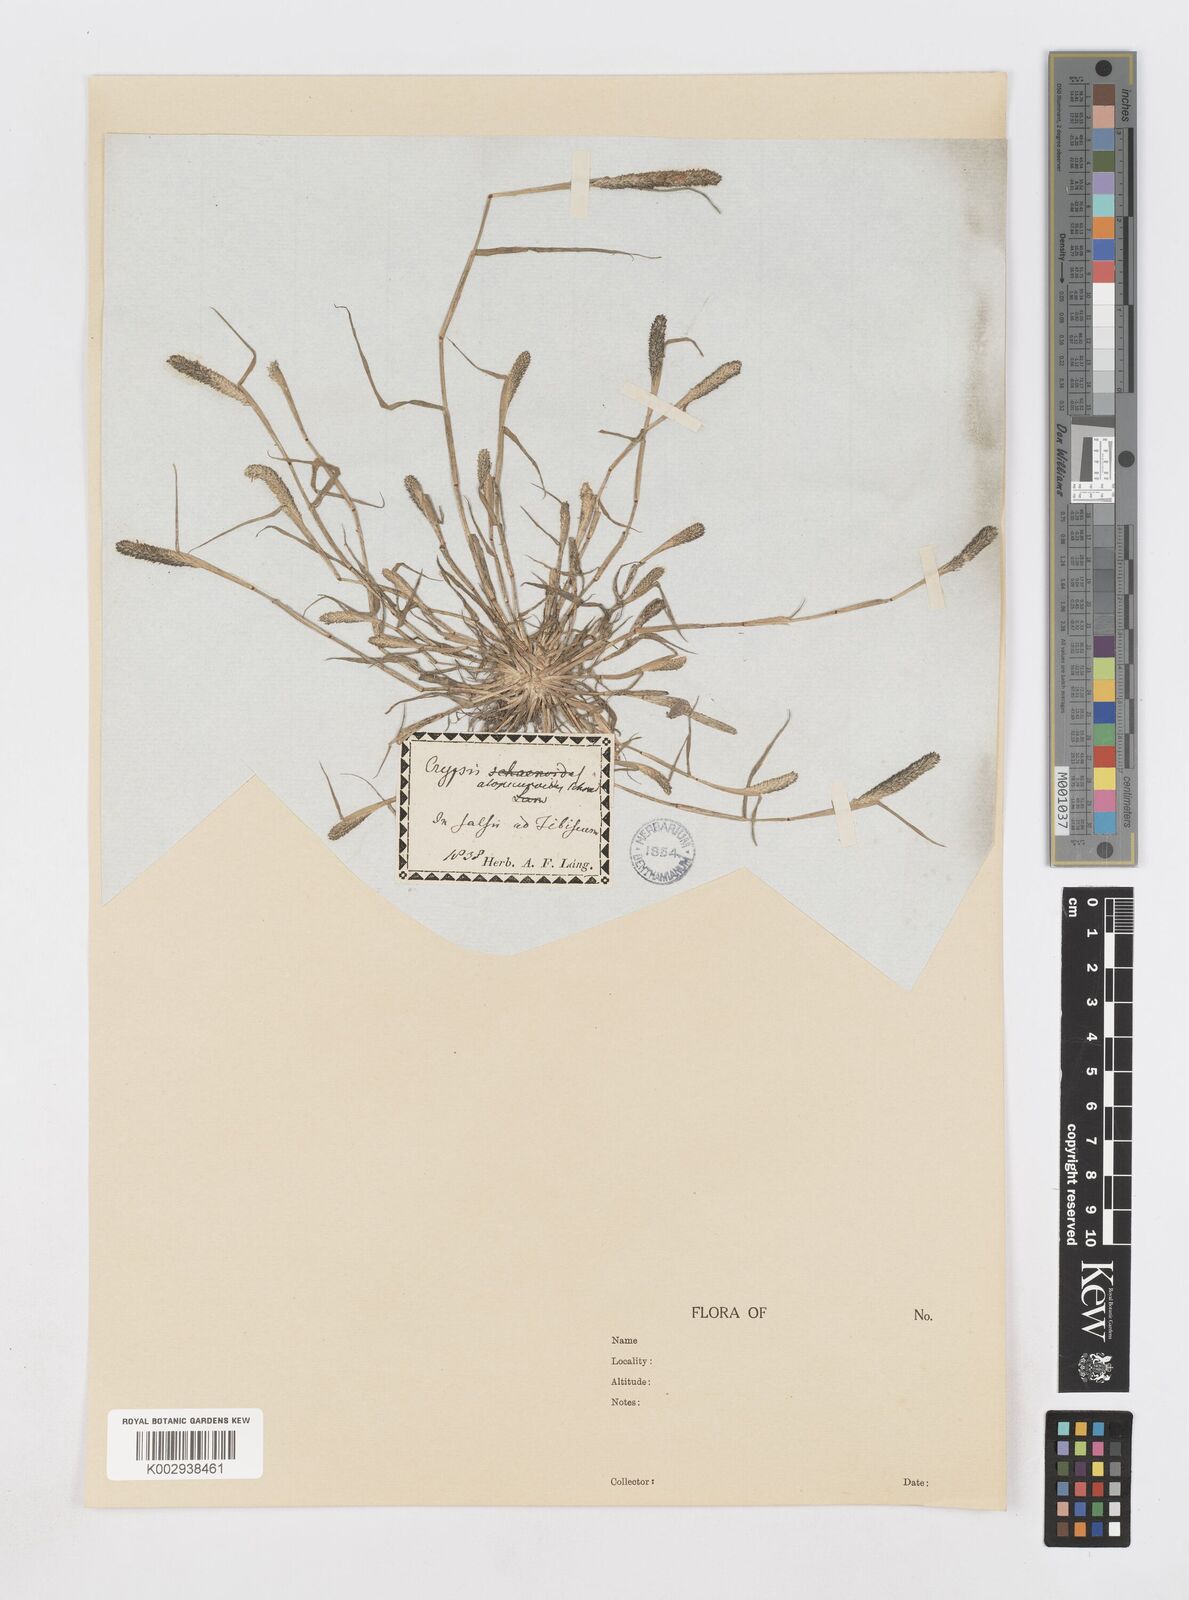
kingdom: Plantae
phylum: Tracheophyta
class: Liliopsida
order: Poales
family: Poaceae
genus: Sporobolus
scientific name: Sporobolus alopecuroides
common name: Foxtail pricklegrass
